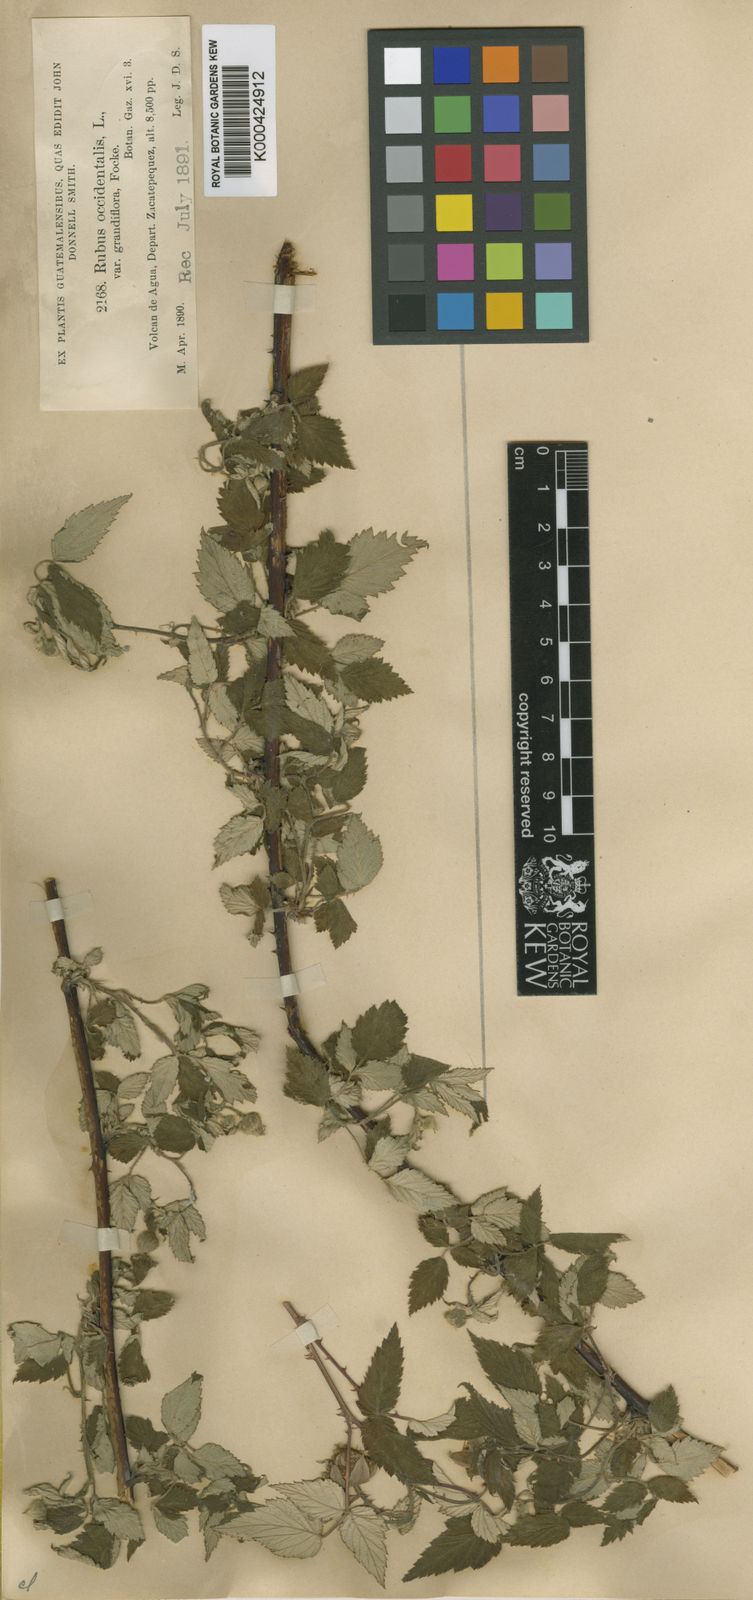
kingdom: Plantae
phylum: Tracheophyta
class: Magnoliopsida
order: Rosales
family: Rosaceae
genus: Rubus
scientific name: Rubus pringlei
